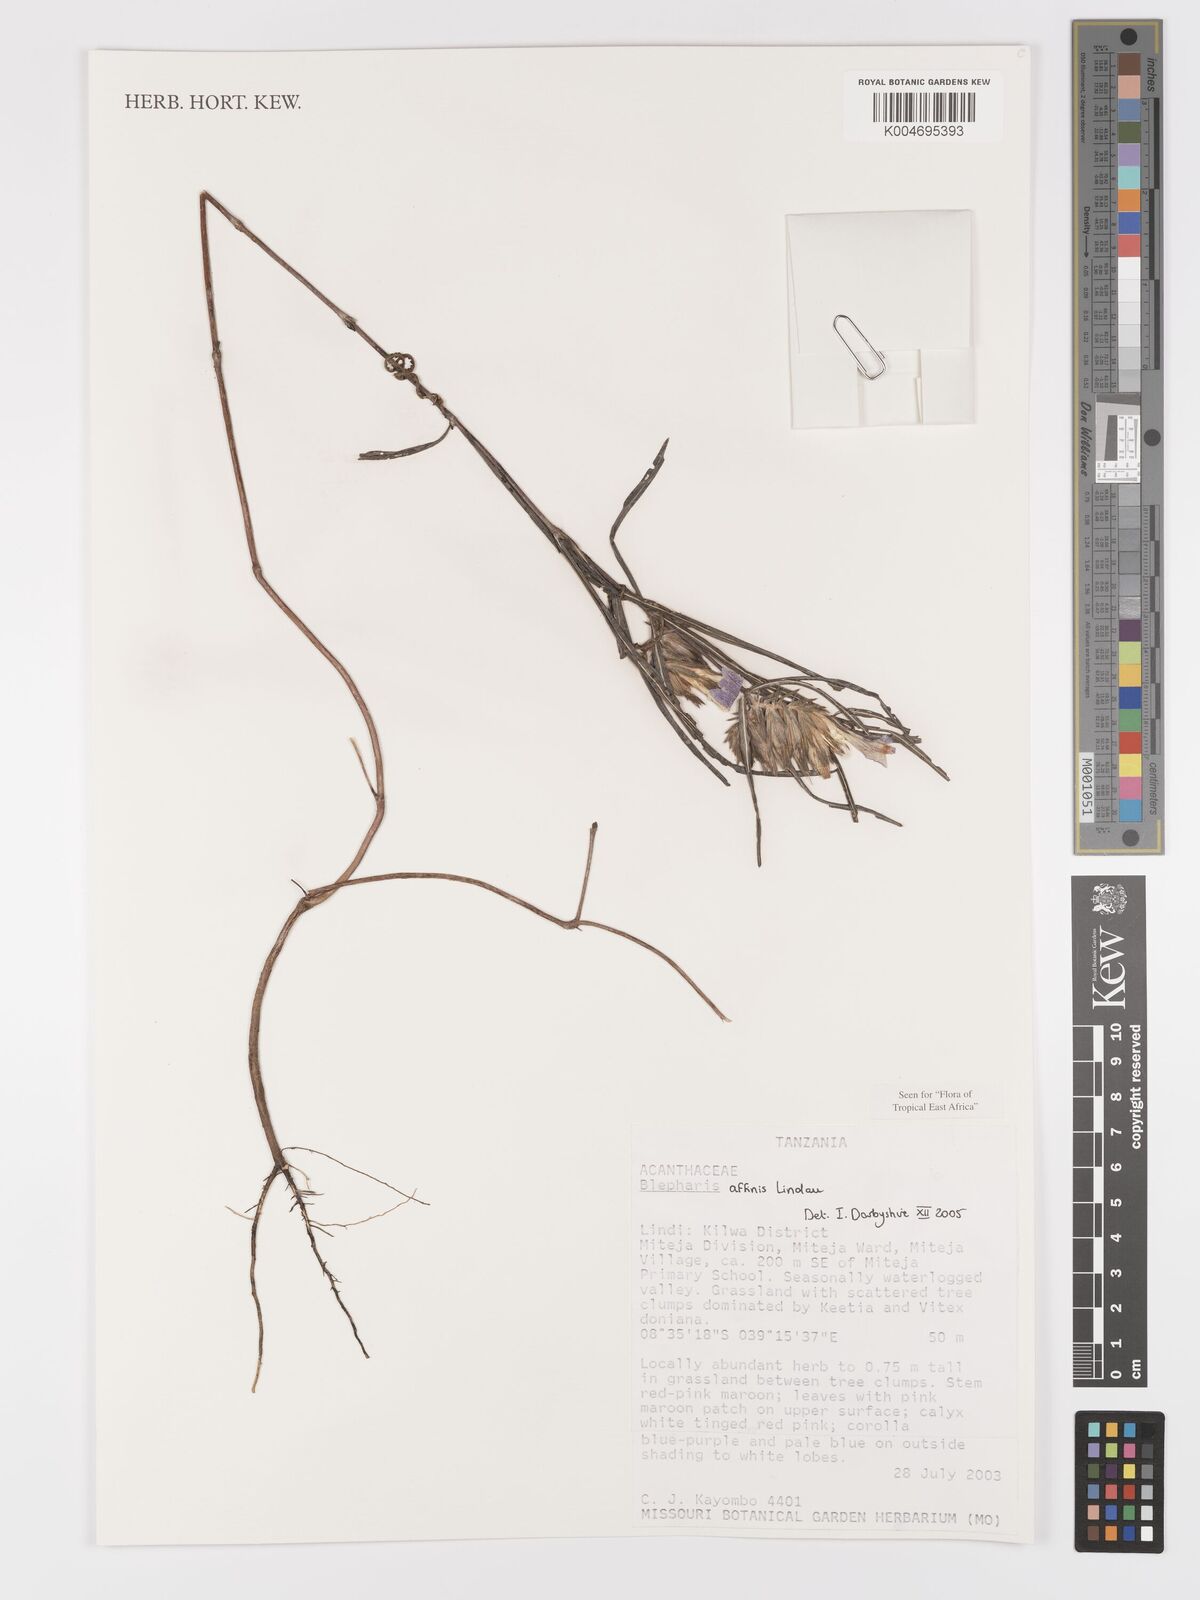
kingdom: Plantae
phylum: Tracheophyta
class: Magnoliopsida
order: Lamiales
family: Acanthaceae
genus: Blepharis
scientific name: Blepharis affinis
